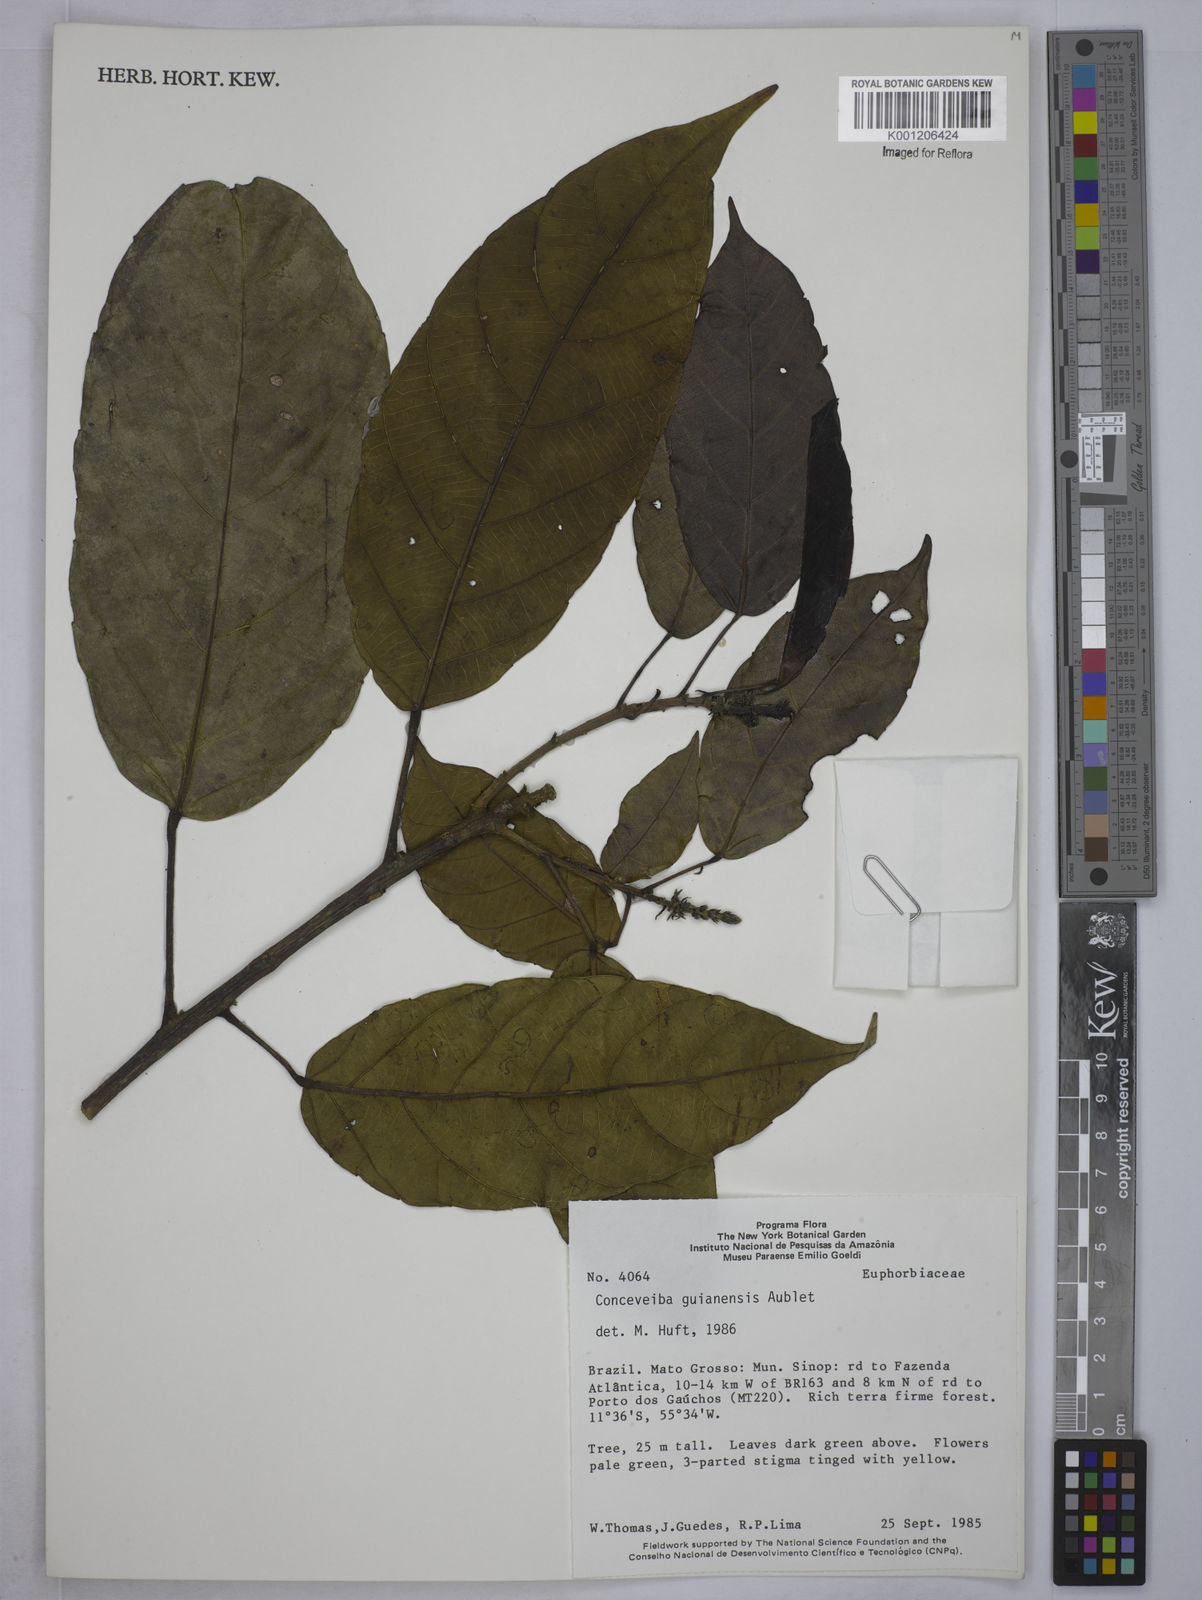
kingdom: Plantae
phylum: Tracheophyta
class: Magnoliopsida
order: Malpighiales
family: Euphorbiaceae
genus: Conceveiba
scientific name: Conceveiba guianensis
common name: Poatoru
